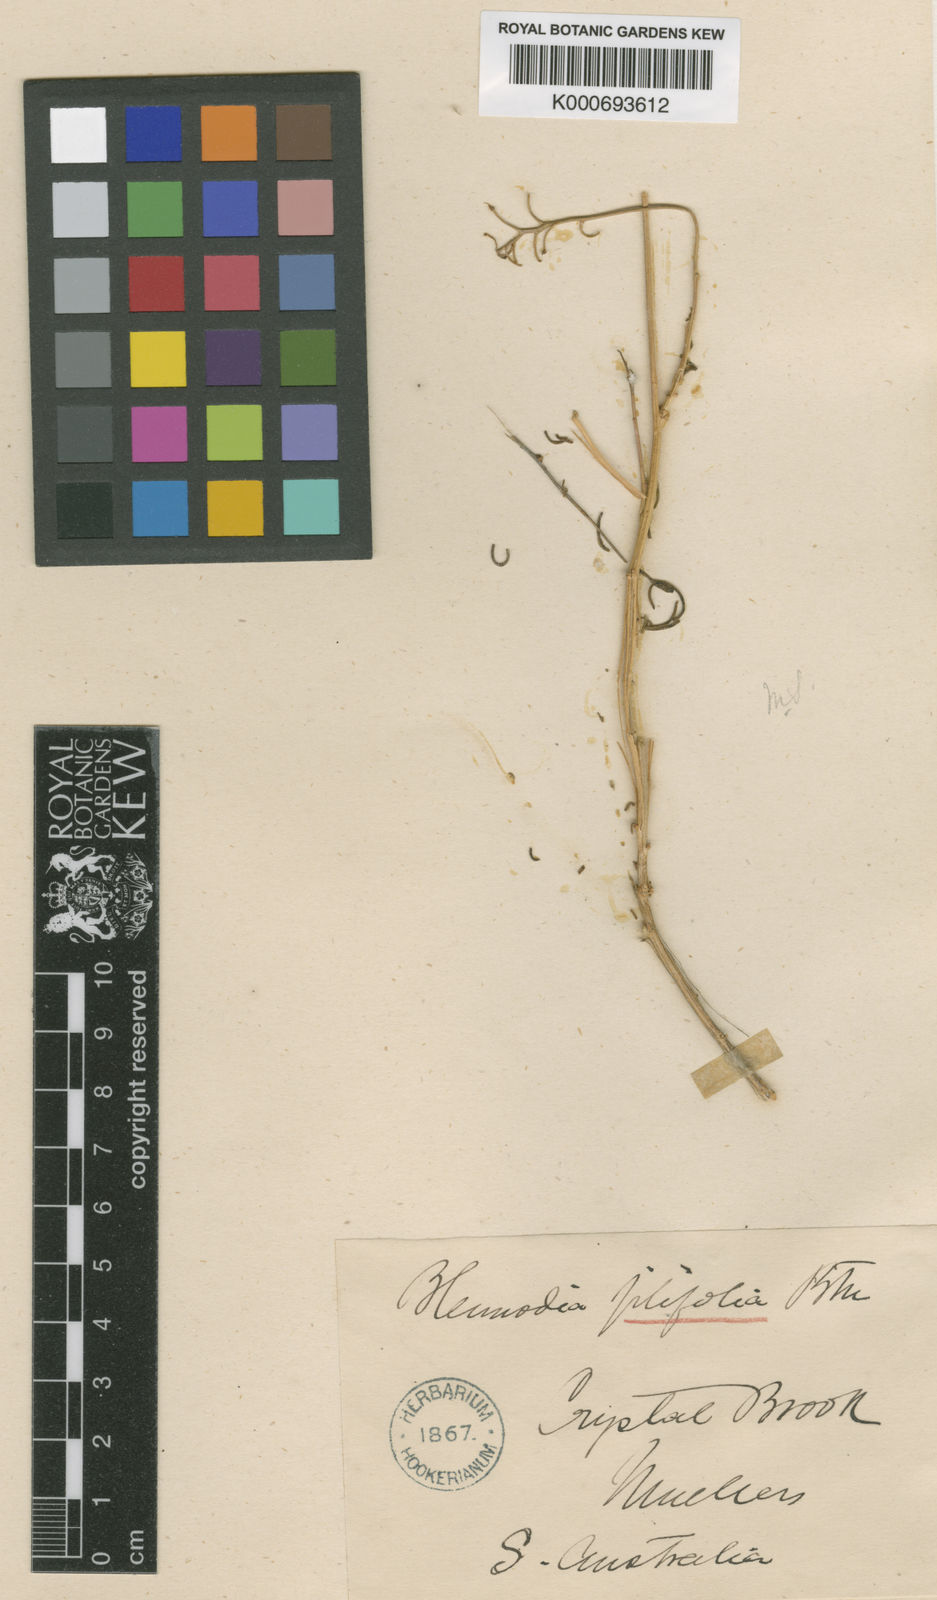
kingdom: Plantae
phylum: Tracheophyta
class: Magnoliopsida
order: Brassicales
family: Brassicaceae
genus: Arabidella
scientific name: Arabidella filifolia
